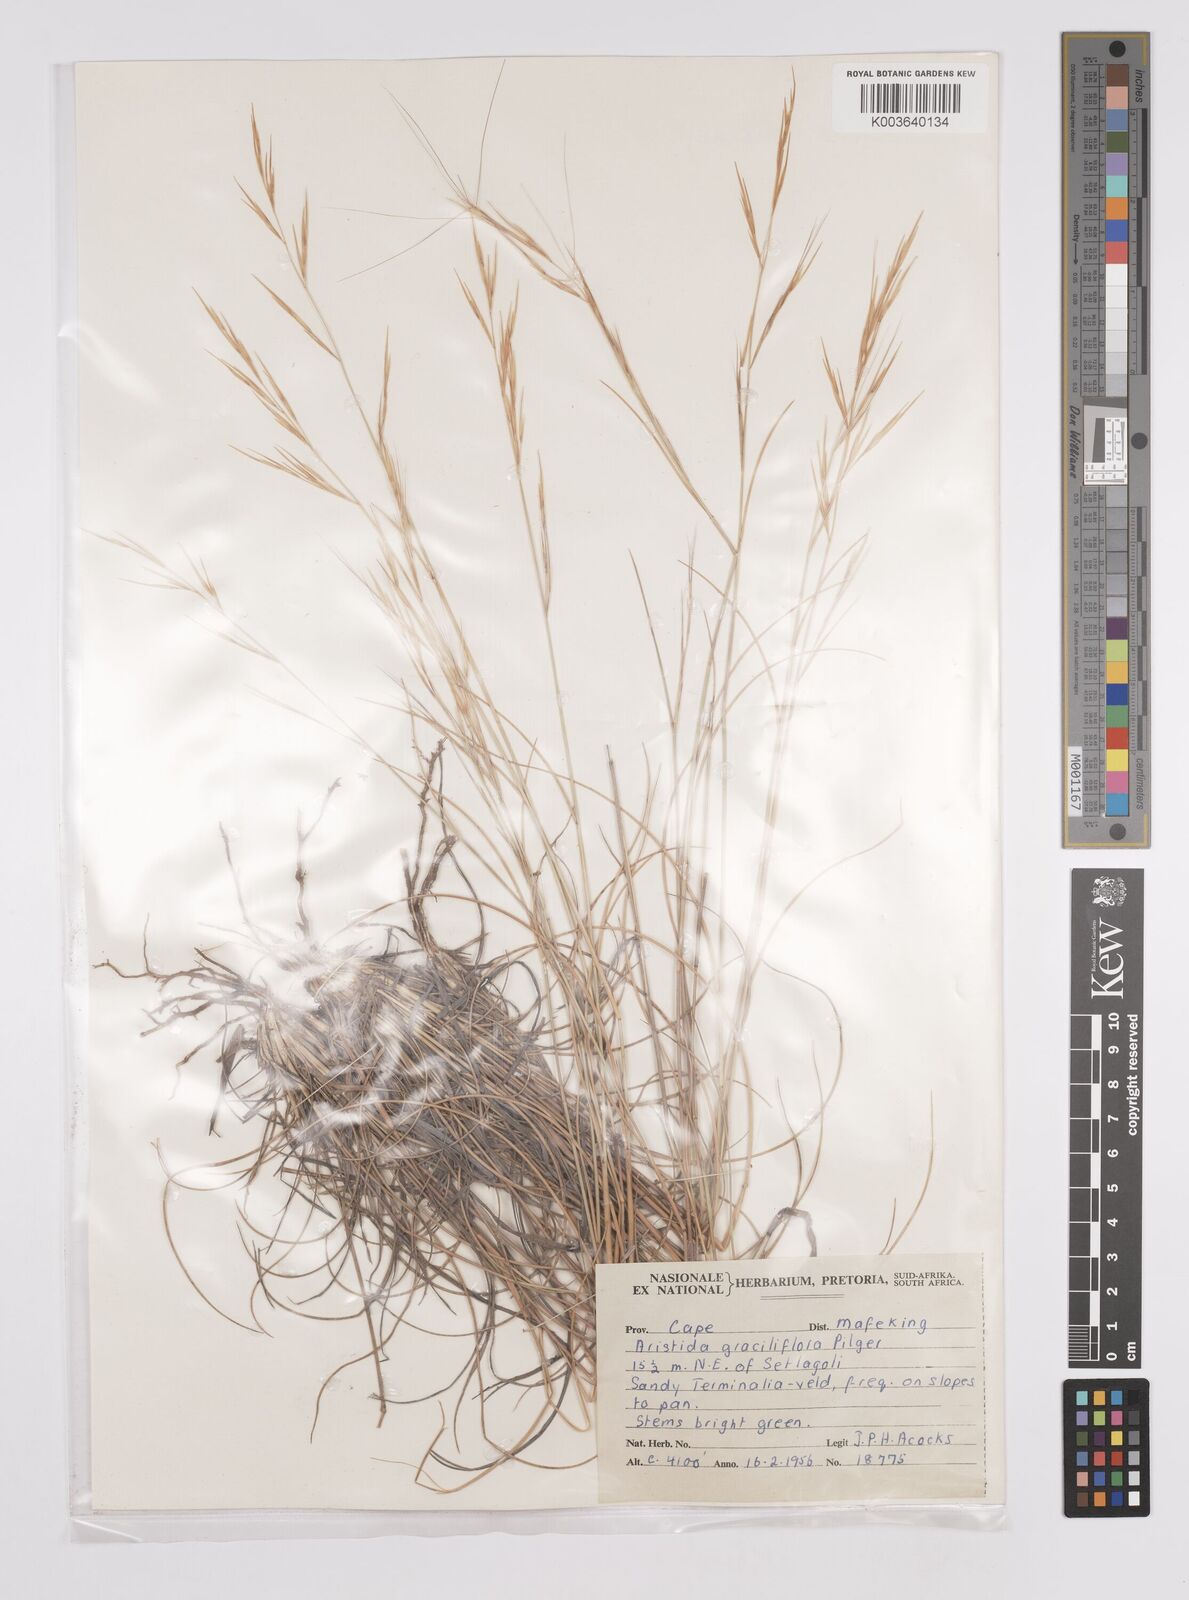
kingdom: Plantae
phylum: Tracheophyta
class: Liliopsida
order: Poales
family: Poaceae
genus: Aristida
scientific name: Aristida stipitata
